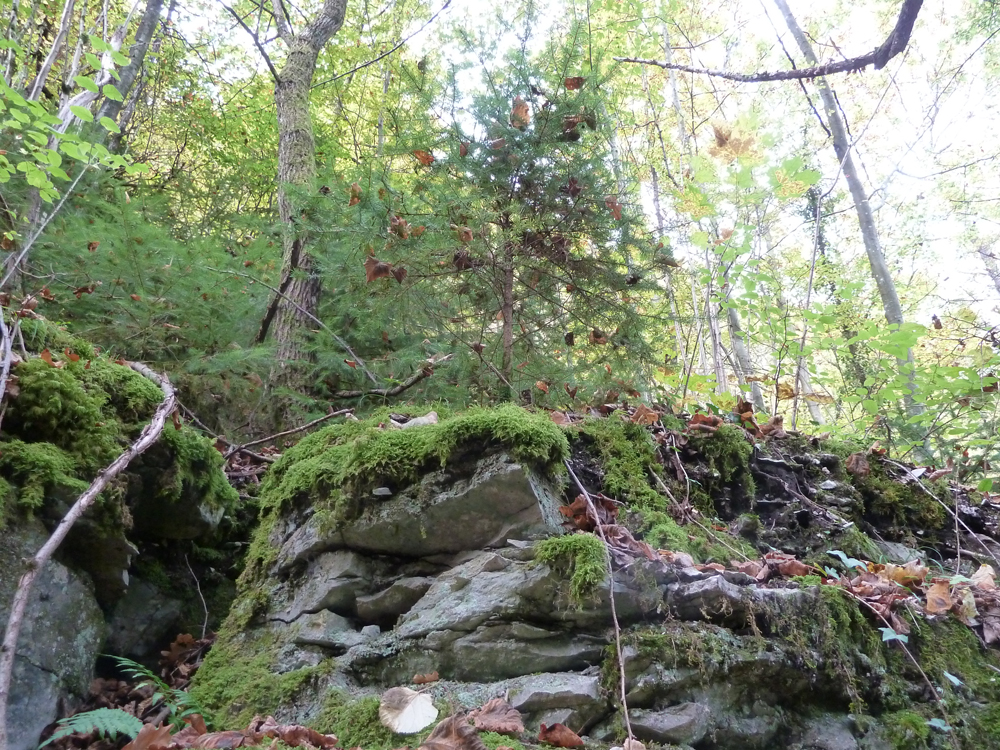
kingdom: Plantae
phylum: Tracheophyta
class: Pinopsida
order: Pinales
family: Pinaceae
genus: Picea
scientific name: Picea abies
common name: Norway spruce
